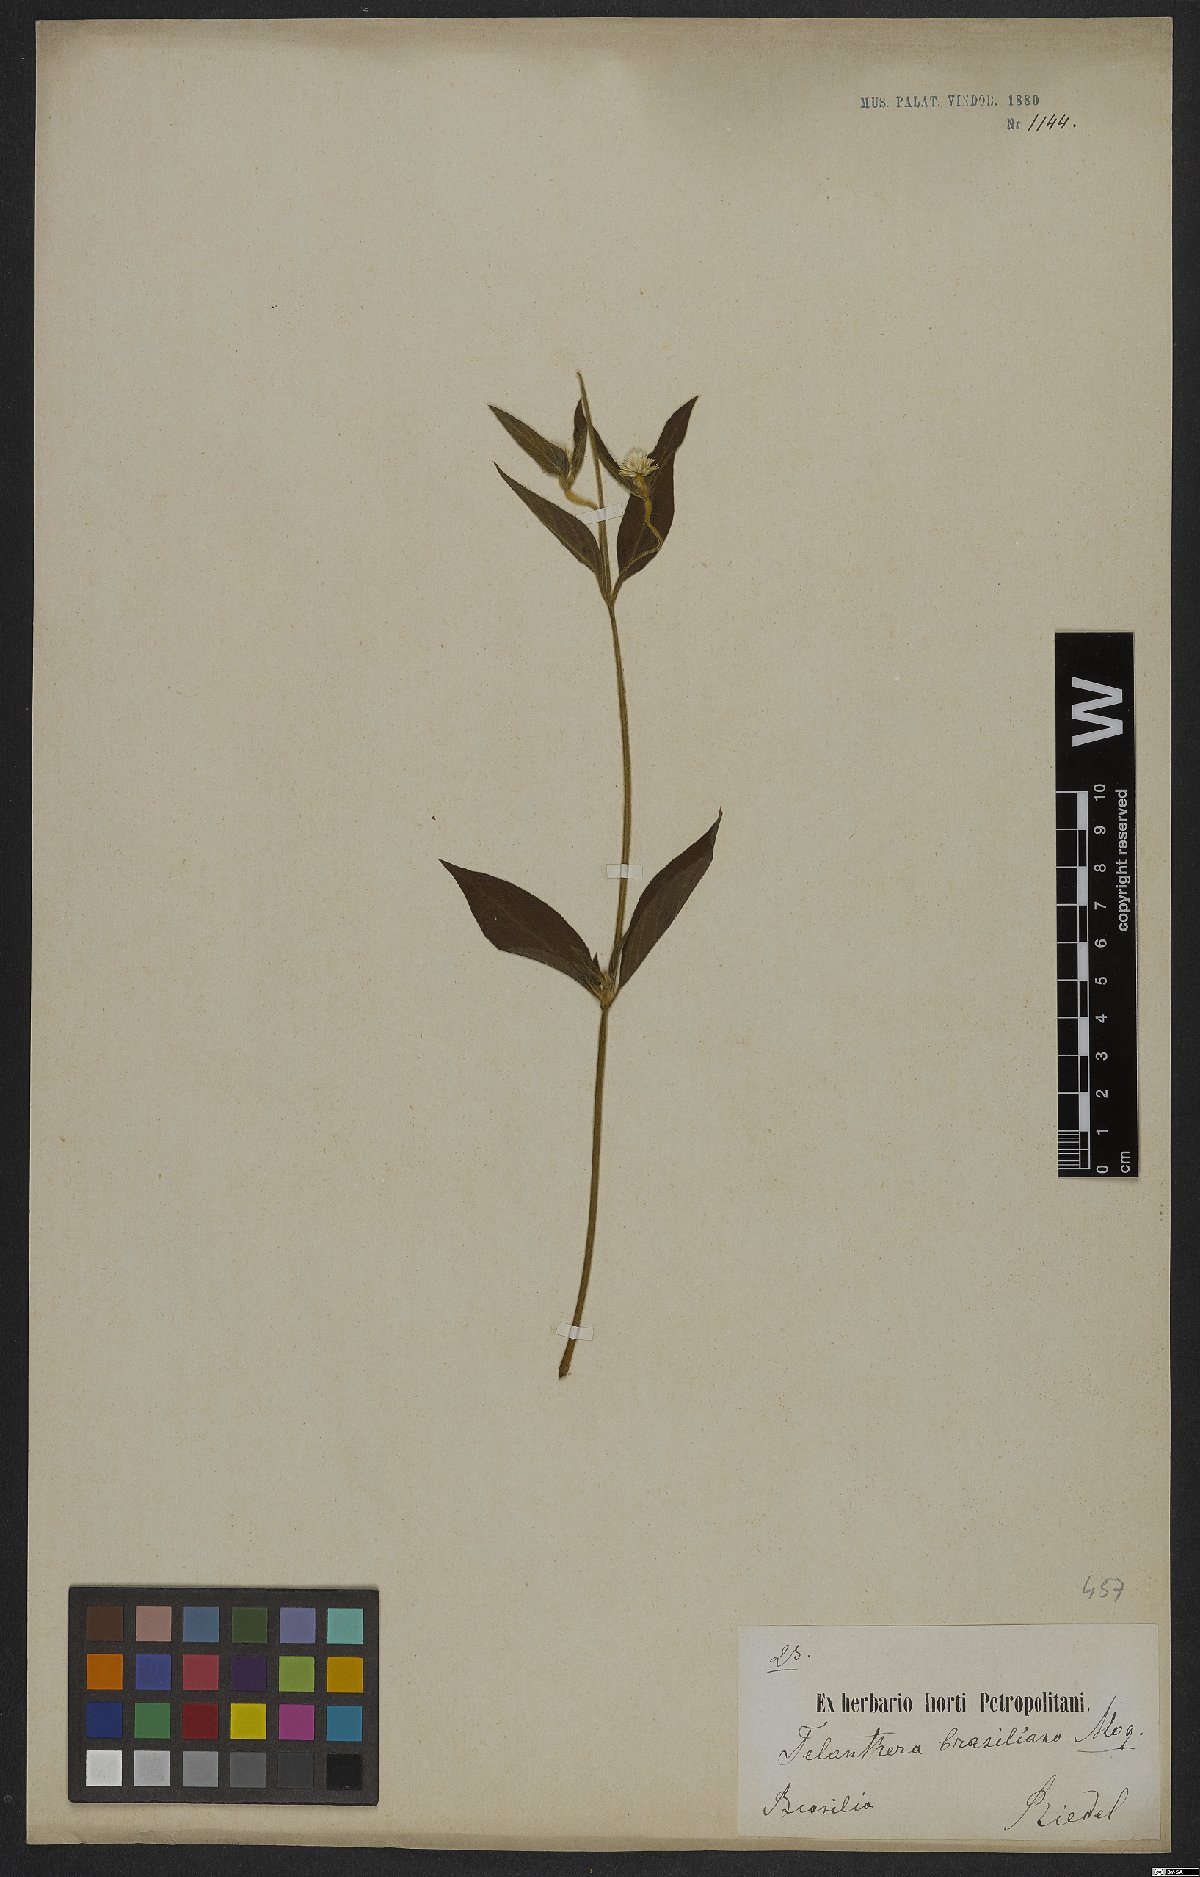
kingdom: Plantae
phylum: Tracheophyta
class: Magnoliopsida
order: Caryophyllales
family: Amaranthaceae
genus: Alternanthera
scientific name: Alternanthera brasiliana
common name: Brazilian joyweed
